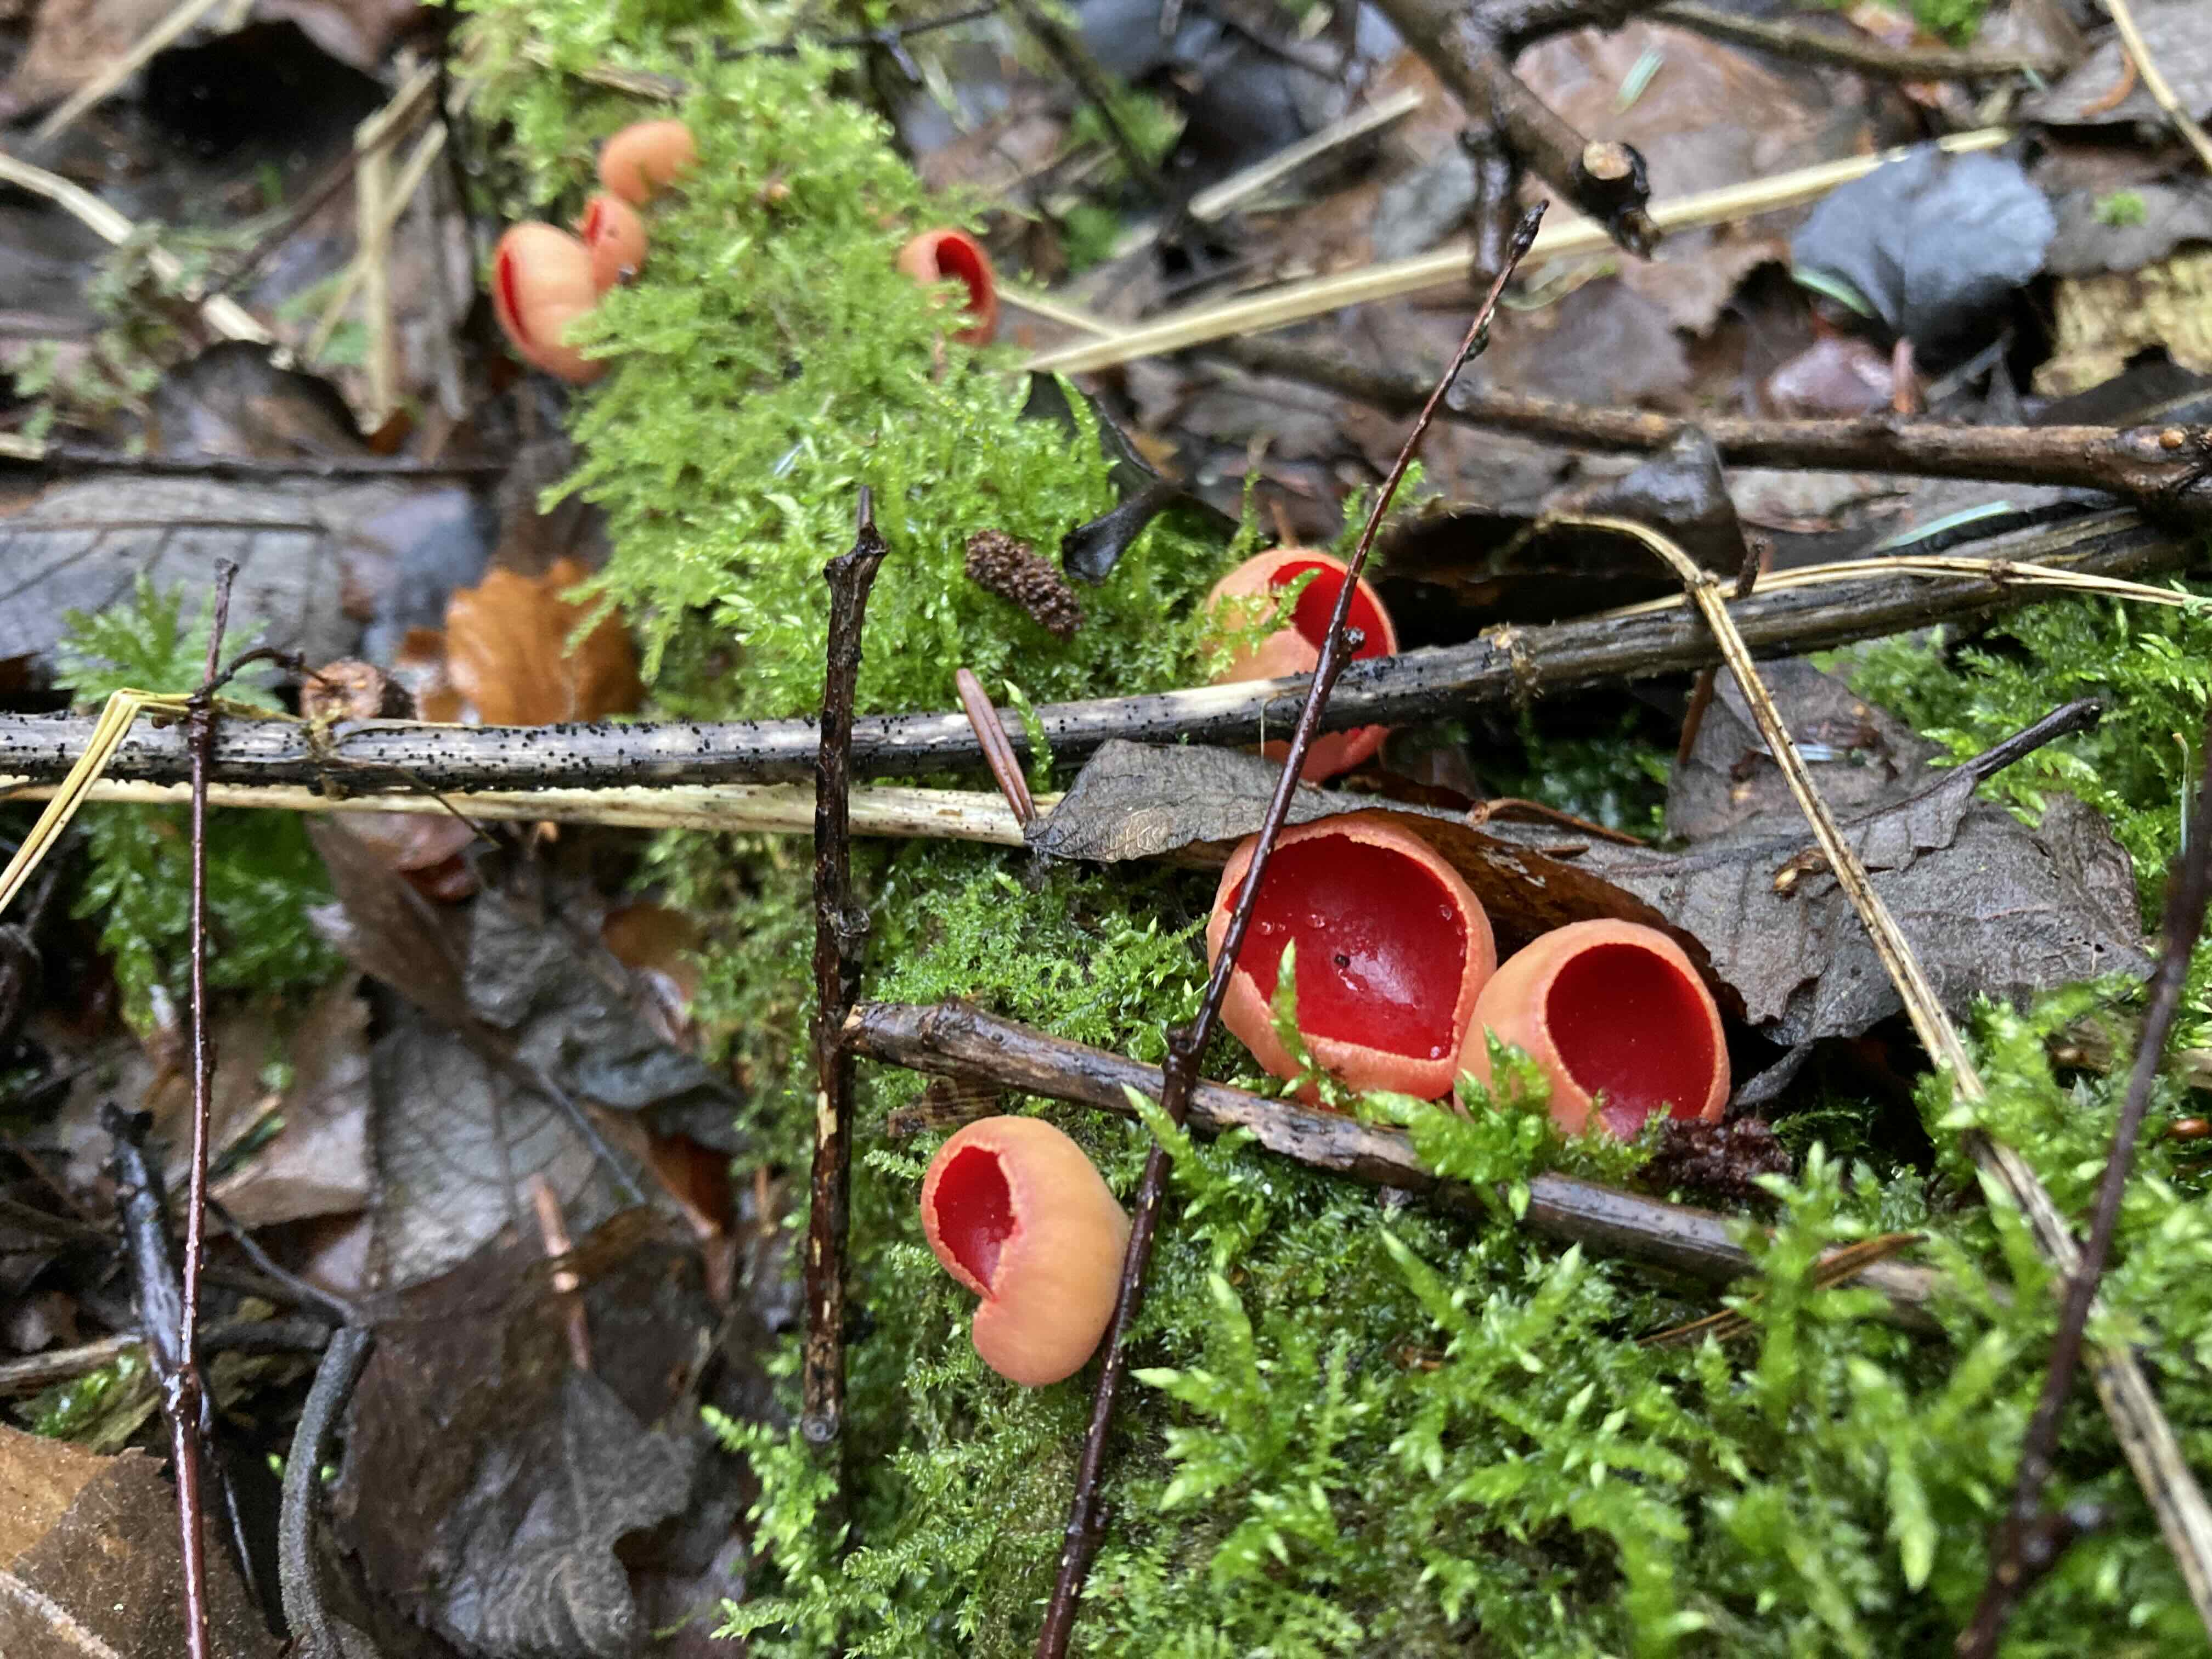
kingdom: Fungi
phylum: Ascomycota
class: Pezizomycetes
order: Pezizales
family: Sarcoscyphaceae
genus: Sarcoscypha
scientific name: Sarcoscypha austriaca
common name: krølhåret pragtbæger
